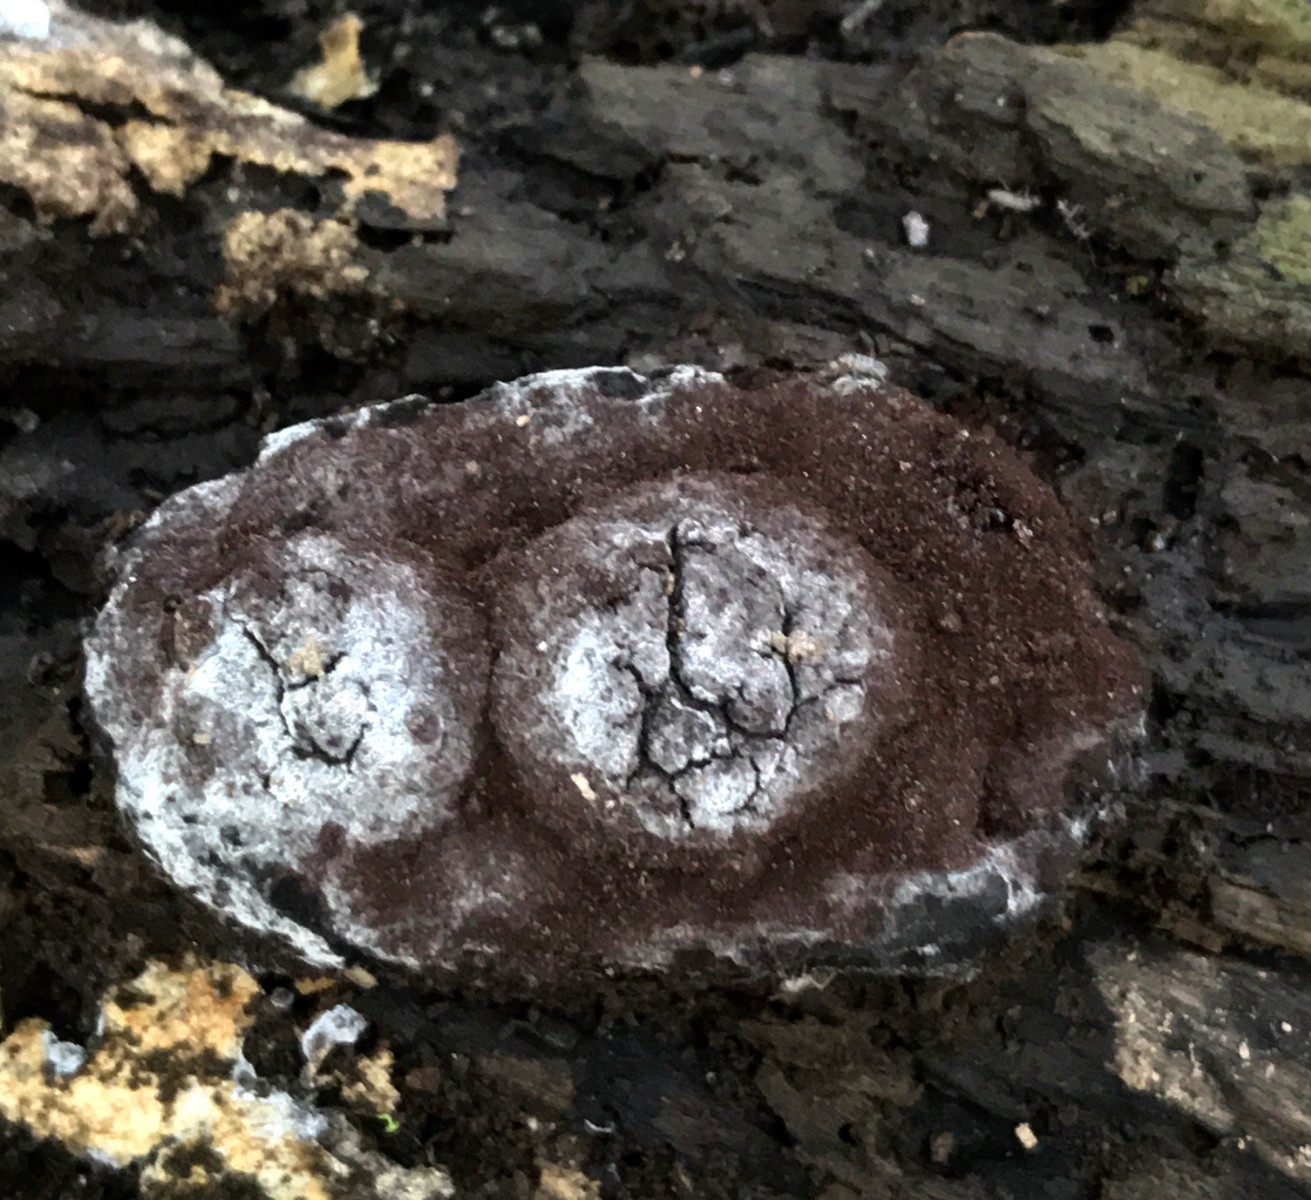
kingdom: Protozoa
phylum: Mycetozoa
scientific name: Mycetozoa
